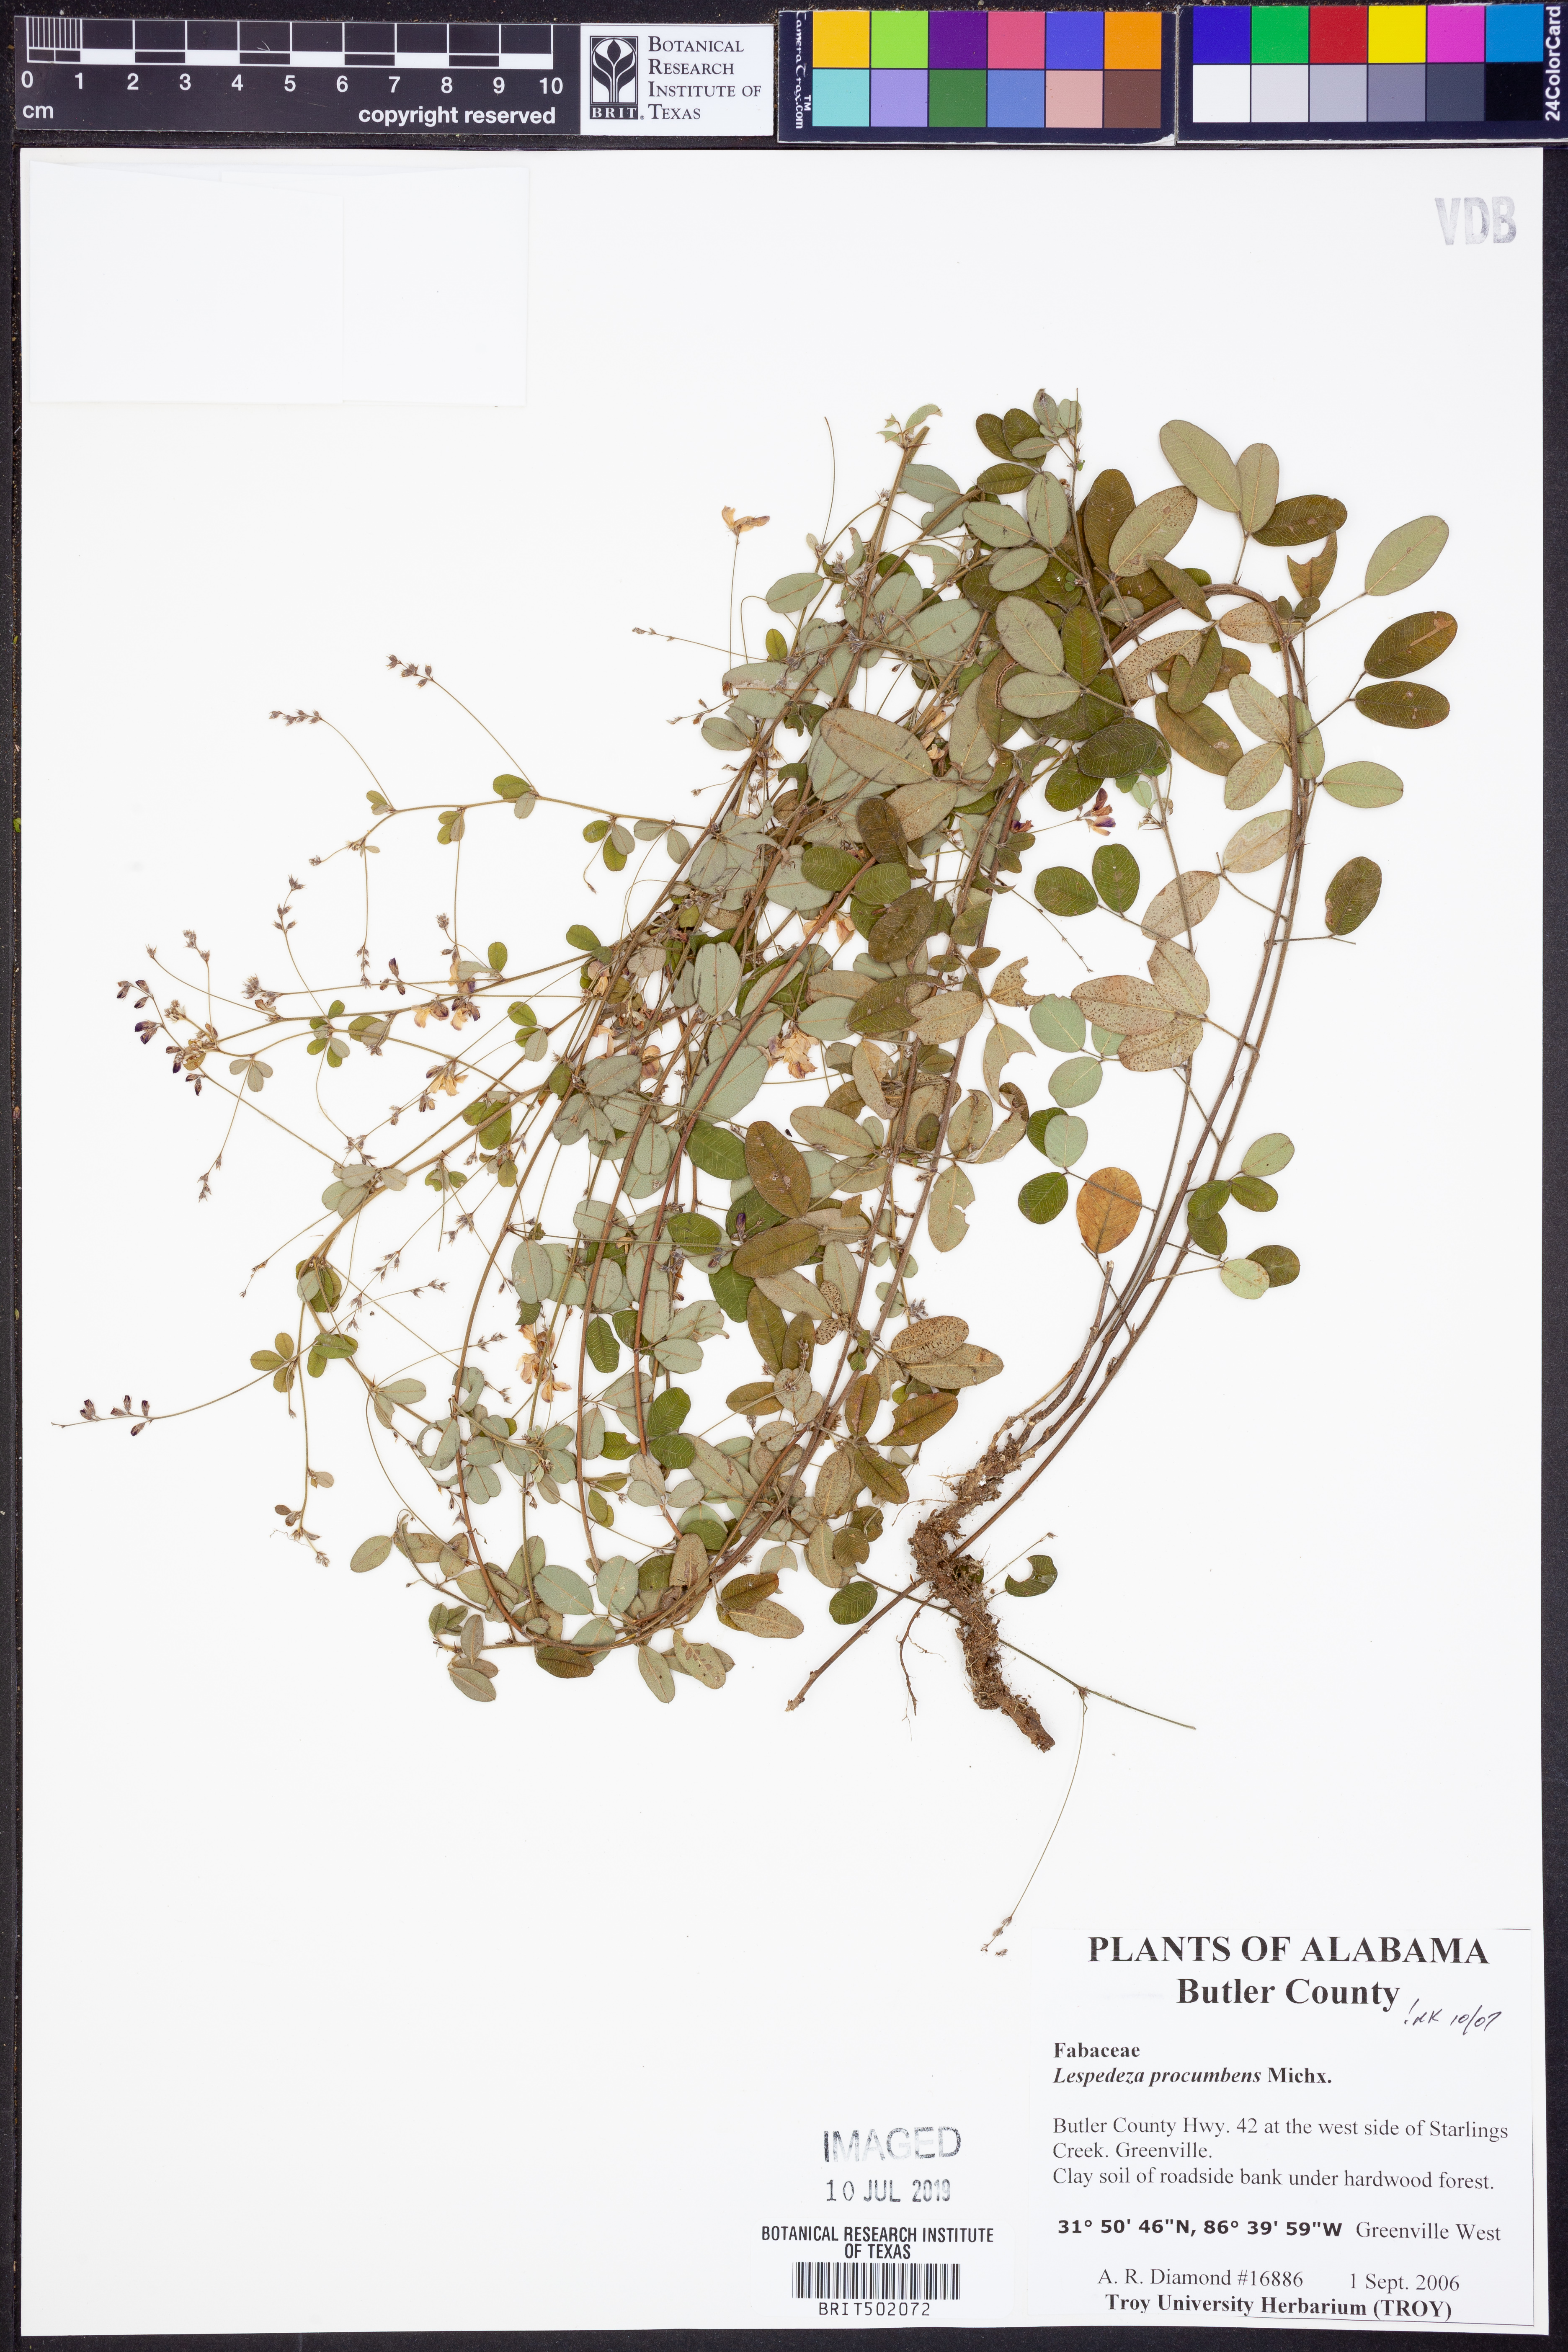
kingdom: Plantae
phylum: Tracheophyta
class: Magnoliopsida
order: Fabales
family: Fabaceae
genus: Lespedeza
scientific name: Lespedeza procumbens
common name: Downy trailing bush-clover
